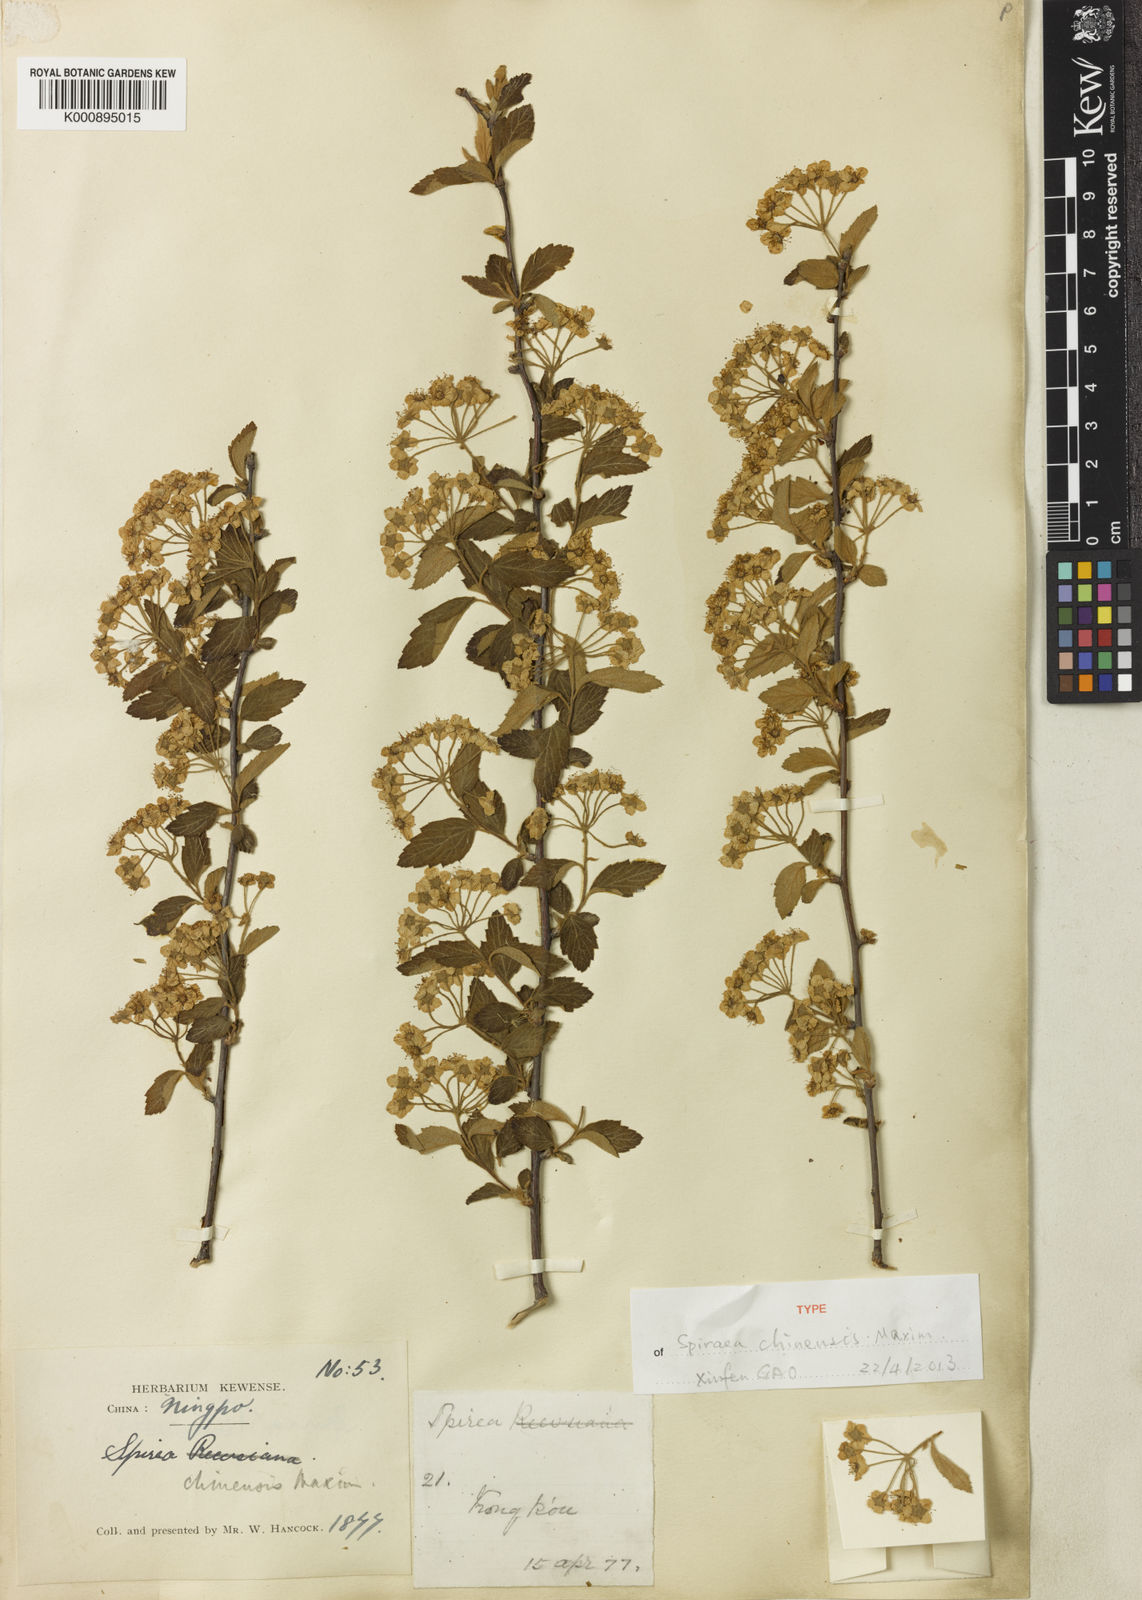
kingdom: Plantae
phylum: Tracheophyta
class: Magnoliopsida
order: Rosales
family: Rosaceae
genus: Spiraea
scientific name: Spiraea chinensis
